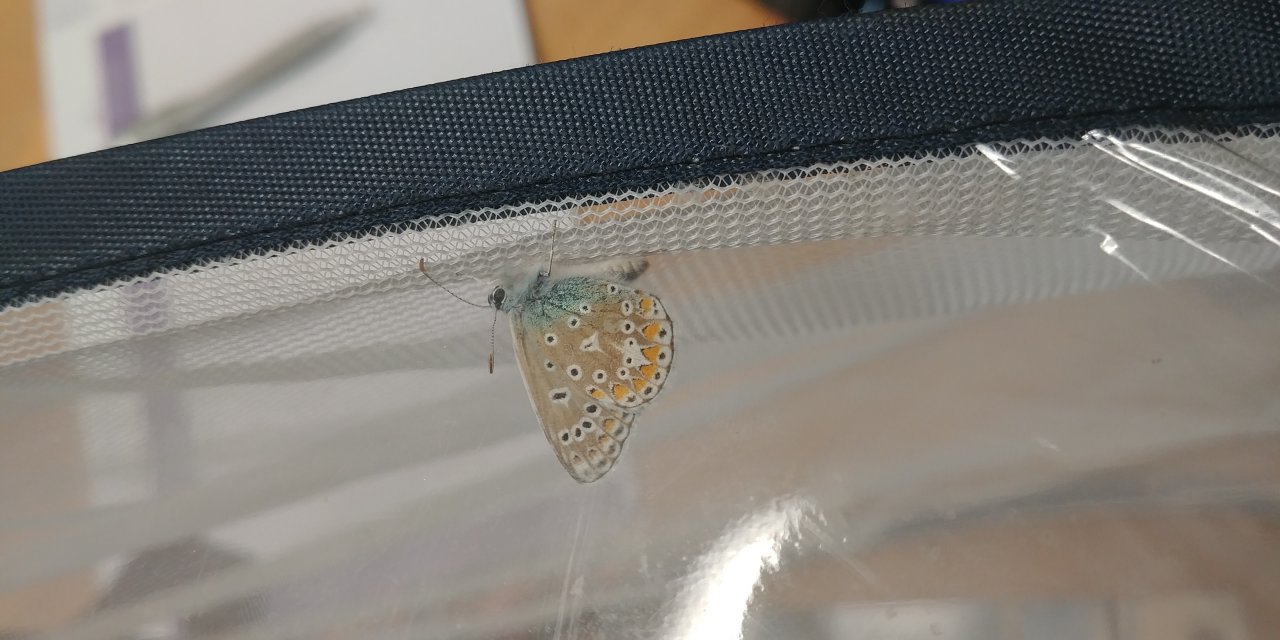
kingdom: Animalia
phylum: Arthropoda
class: Insecta
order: Lepidoptera
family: Lycaenidae
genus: Polyommatus
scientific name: Polyommatus icarus
